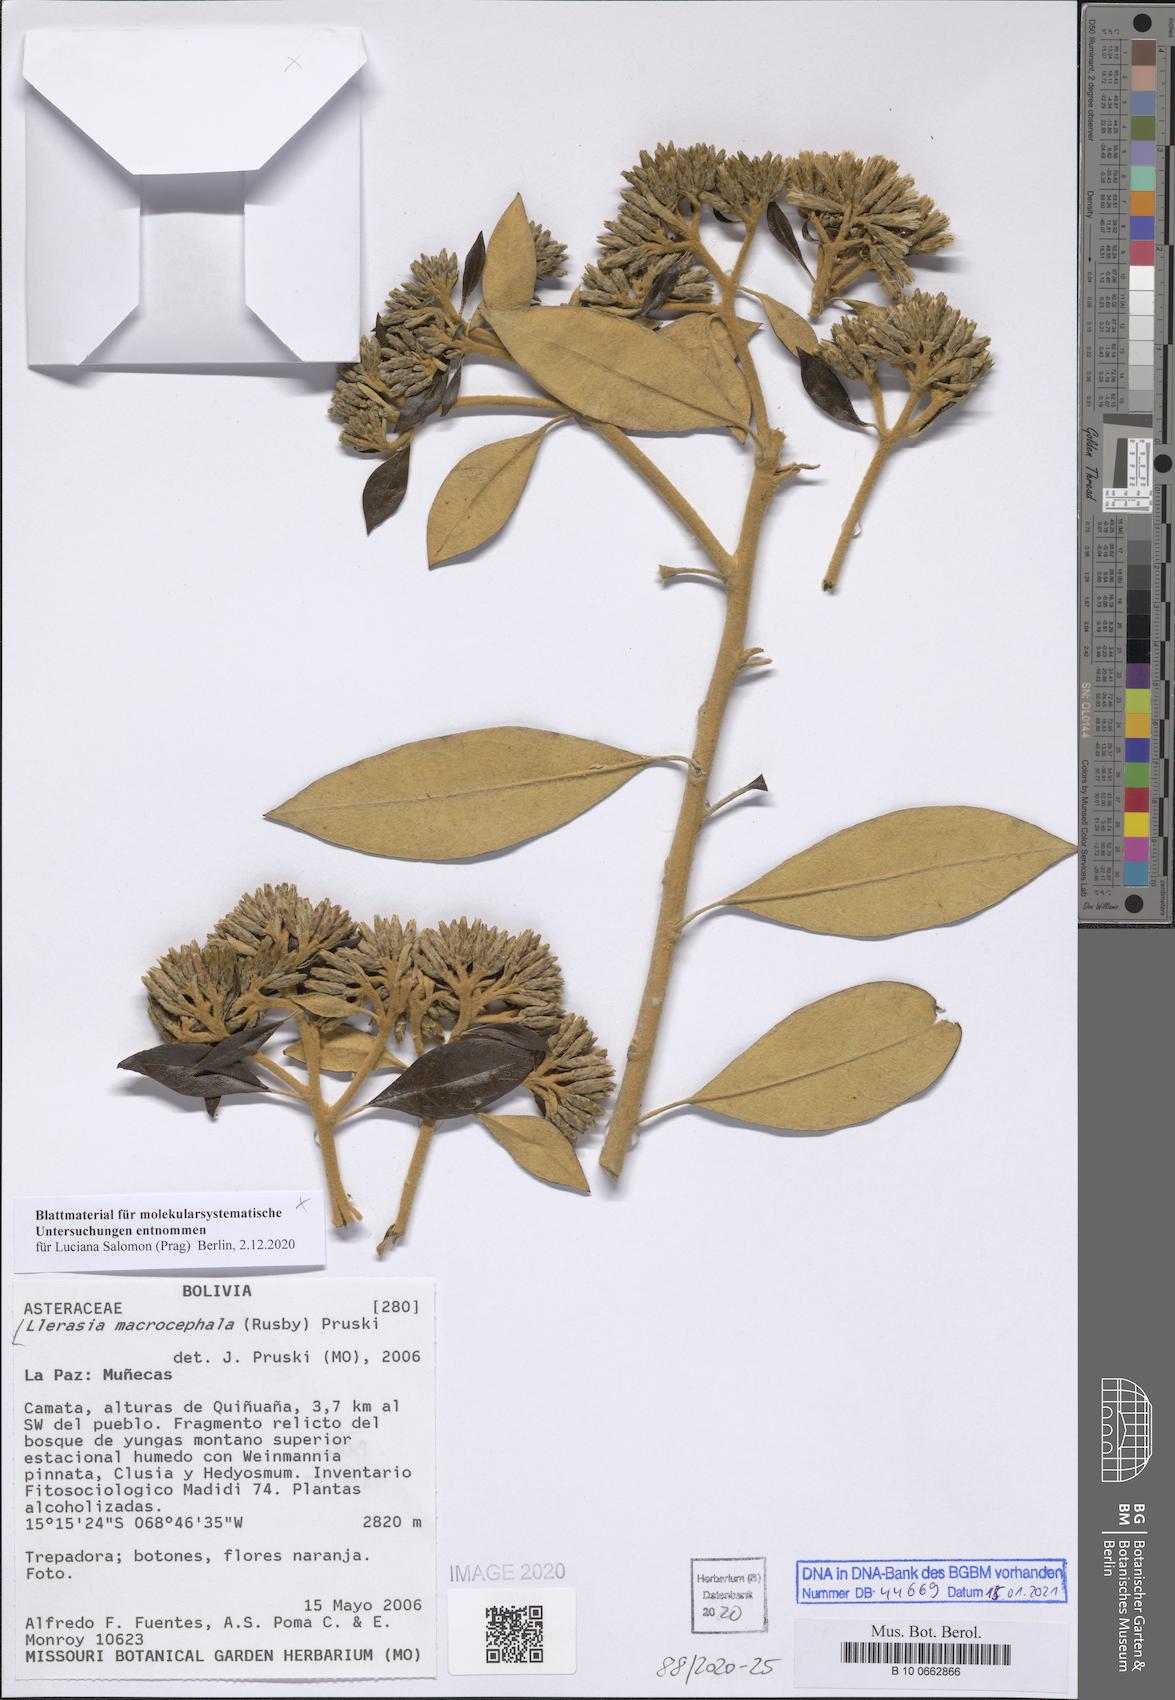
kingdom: Plantae
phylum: Tracheophyta
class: Magnoliopsida
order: Asterales
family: Asteraceae
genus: Llerasia
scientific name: Llerasia macrocephala
